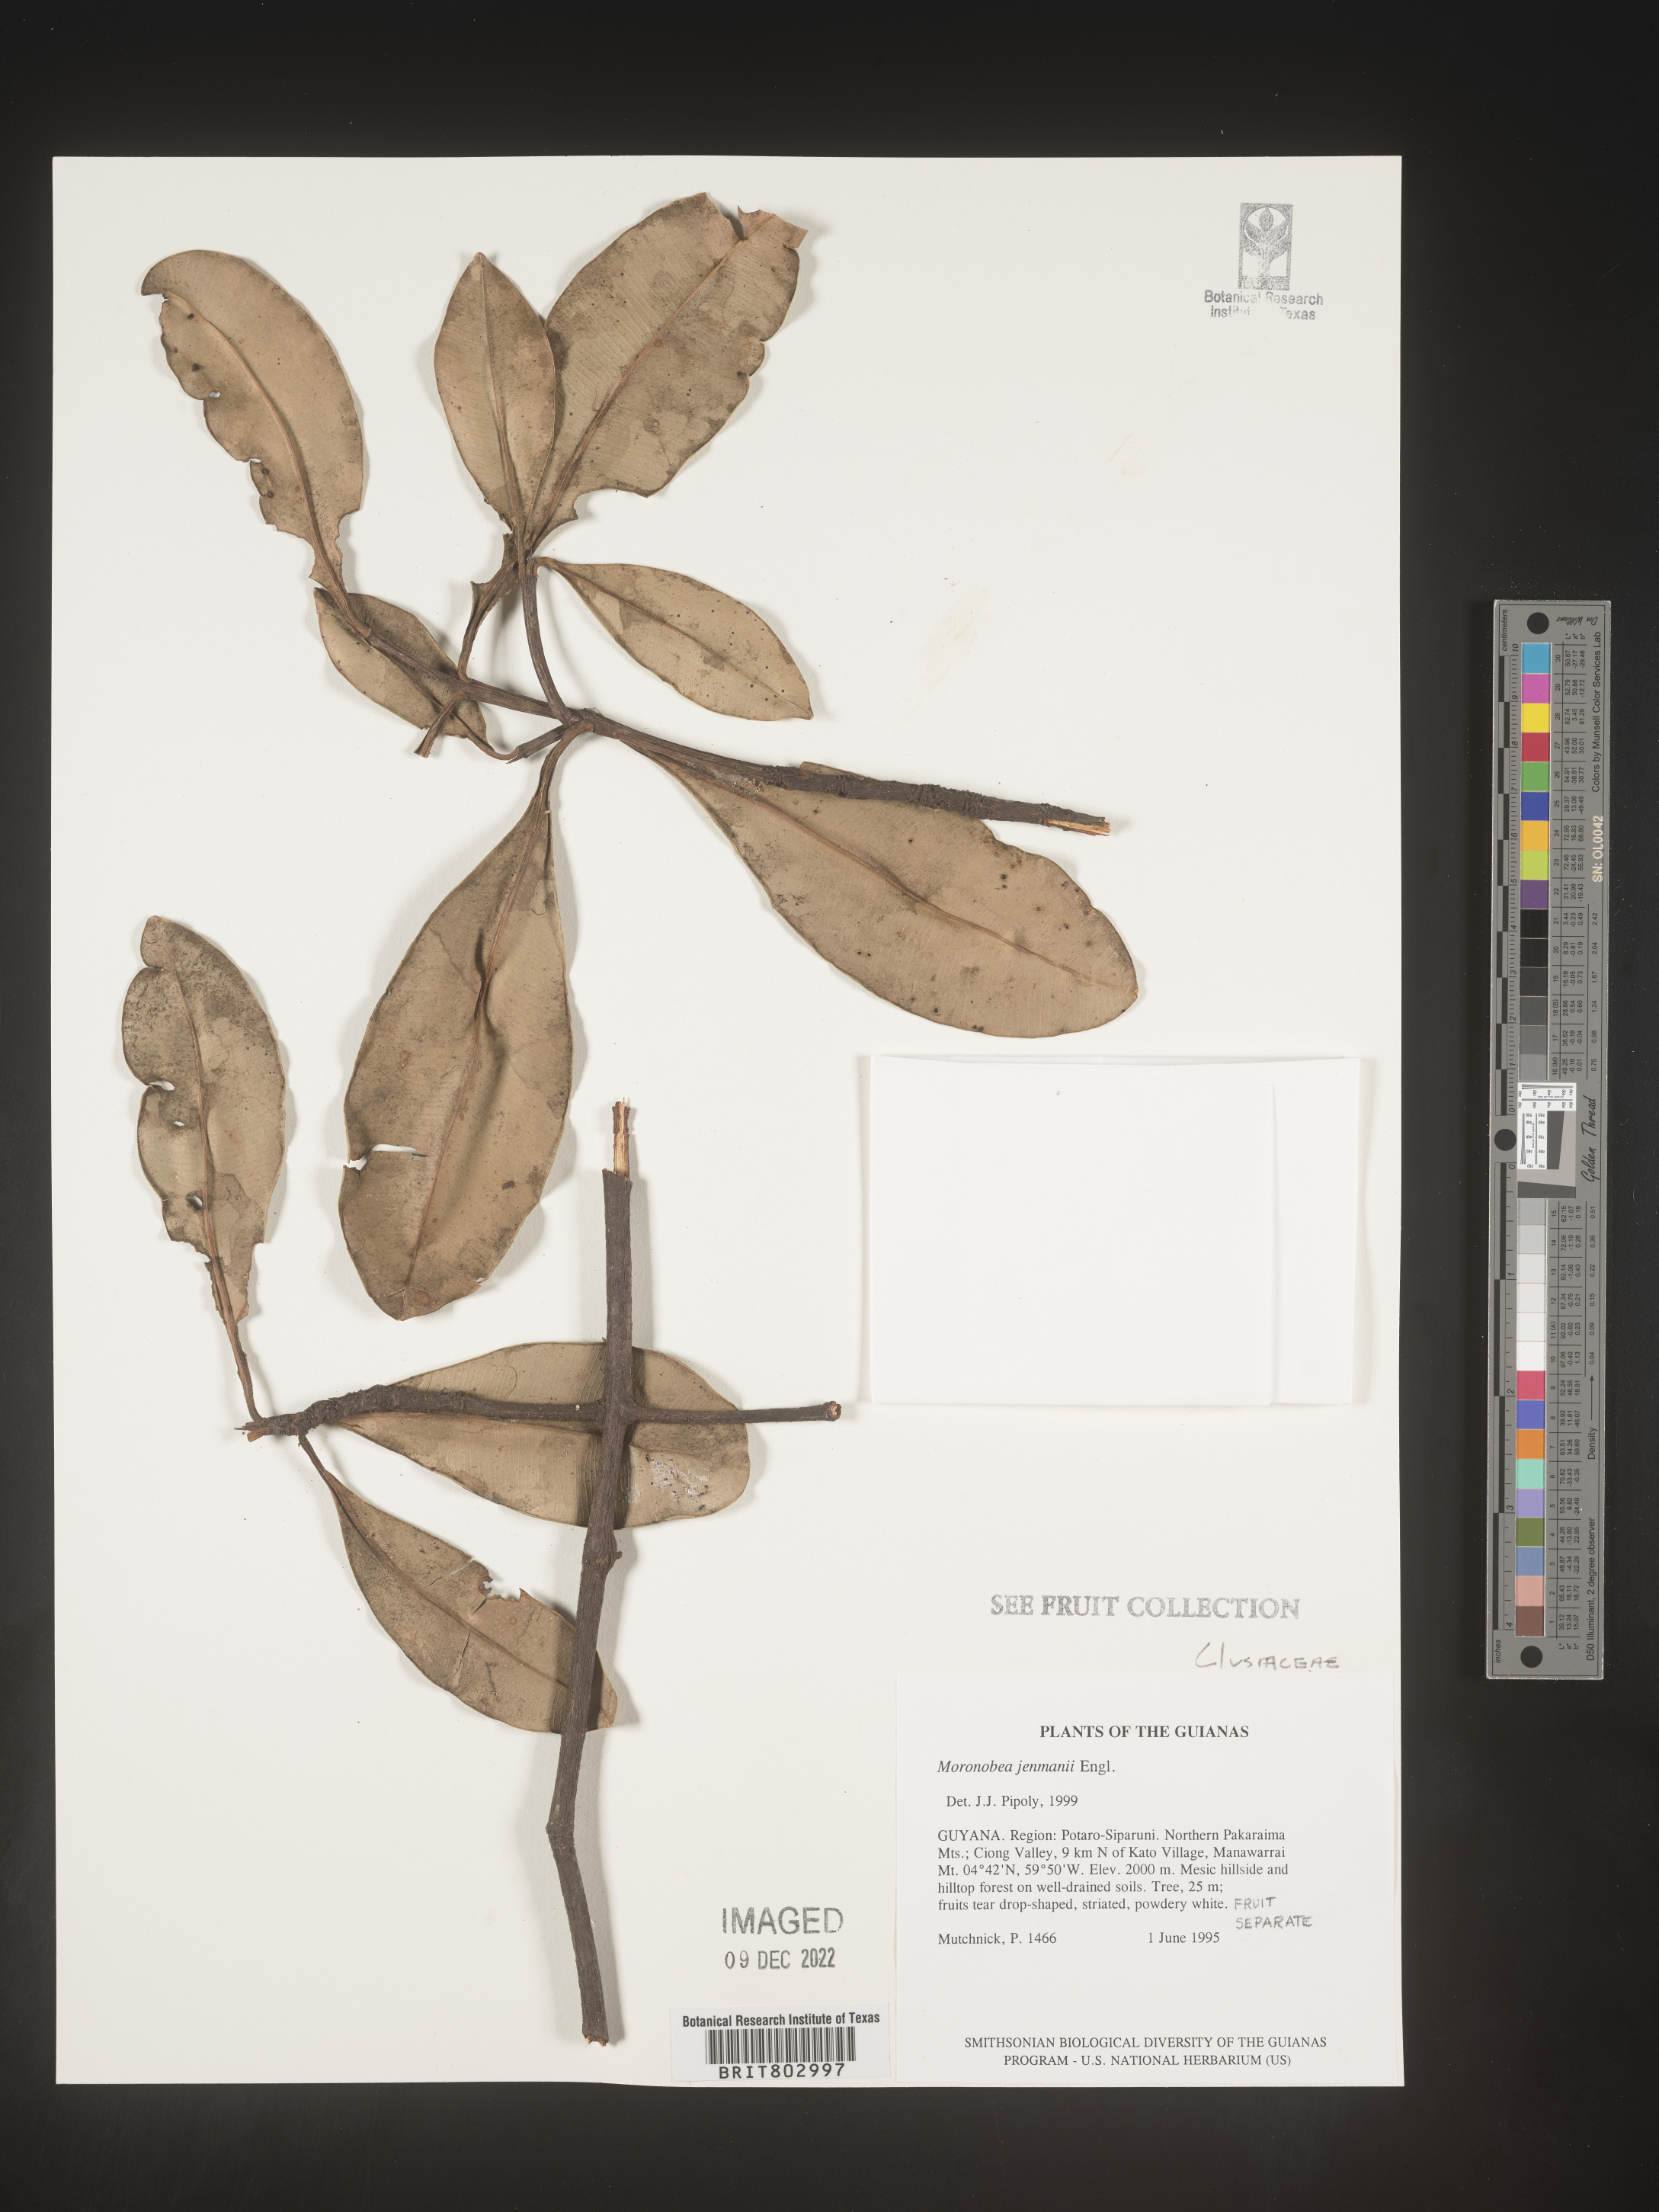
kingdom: Plantae
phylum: Tracheophyta
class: Magnoliopsida
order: Malpighiales
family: Clusiaceae
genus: Moronobea
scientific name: Moronobea
